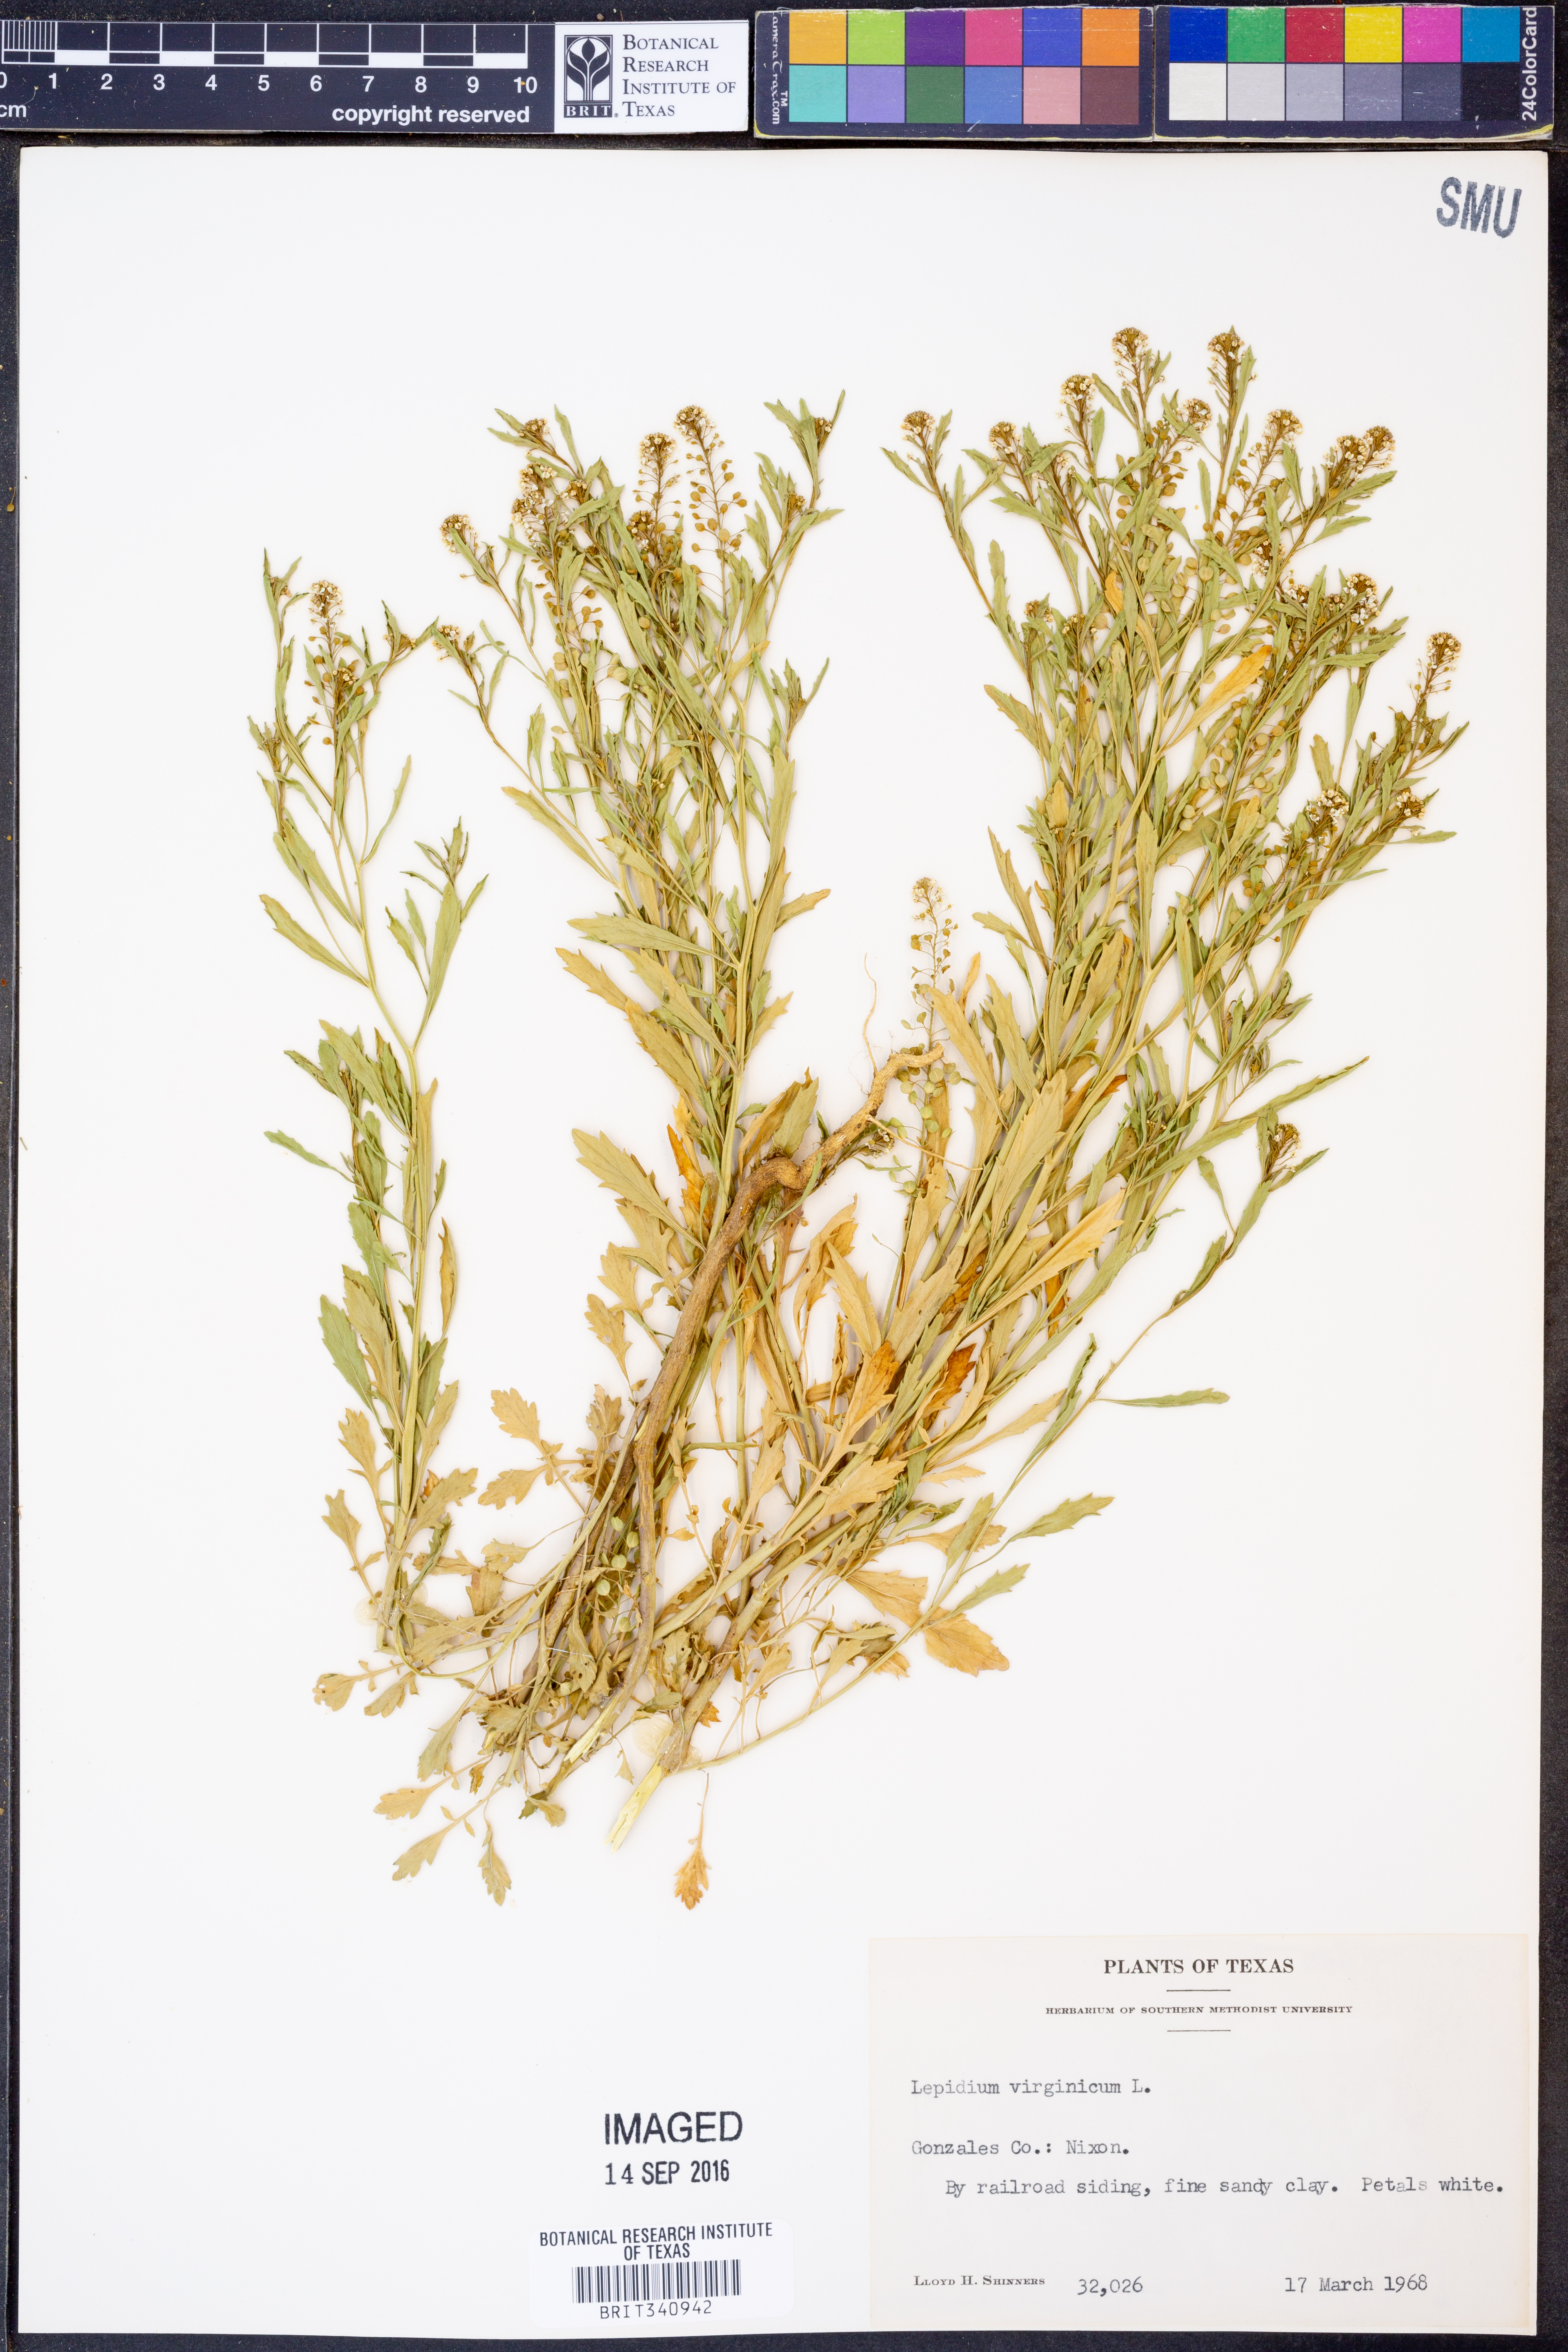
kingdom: Plantae
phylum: Tracheophyta
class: Magnoliopsida
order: Brassicales
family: Brassicaceae
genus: Lepidium
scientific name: Lepidium virginicum
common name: Least pepperwort
